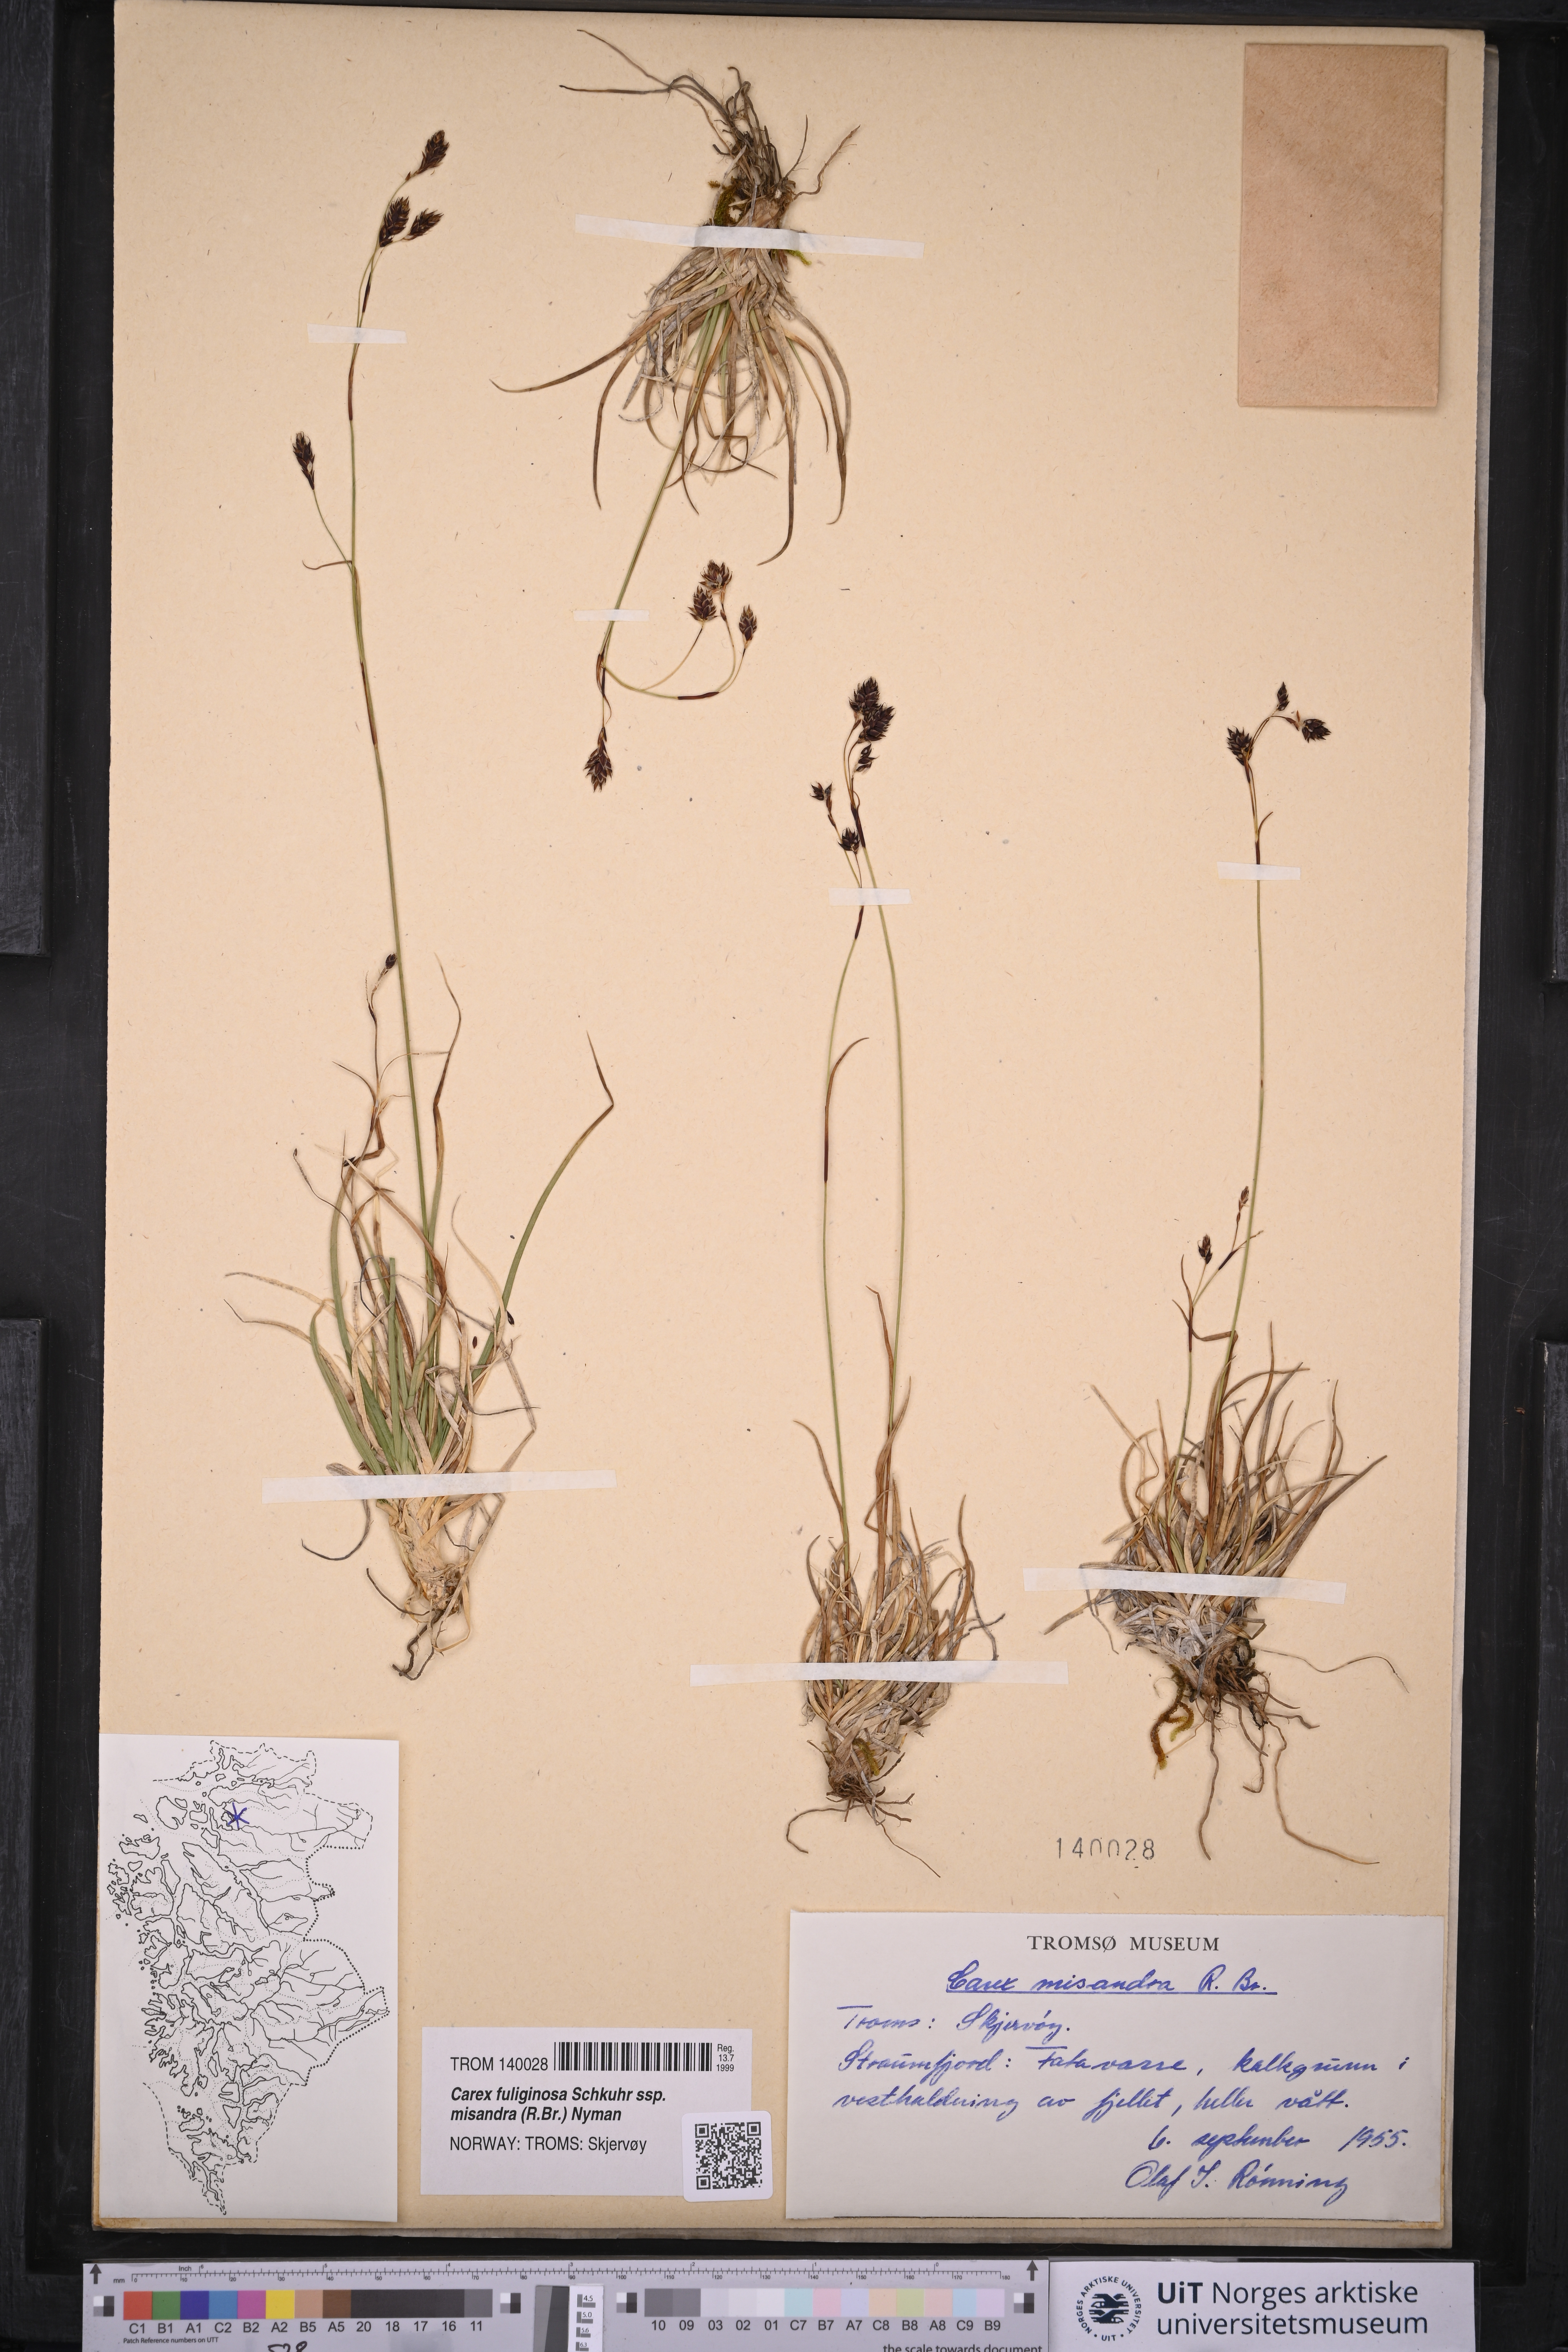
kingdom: Plantae
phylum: Tracheophyta
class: Liliopsida
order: Poales
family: Cyperaceae
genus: Carex
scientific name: Carex fuliginosa
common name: Few-flowered sedge
